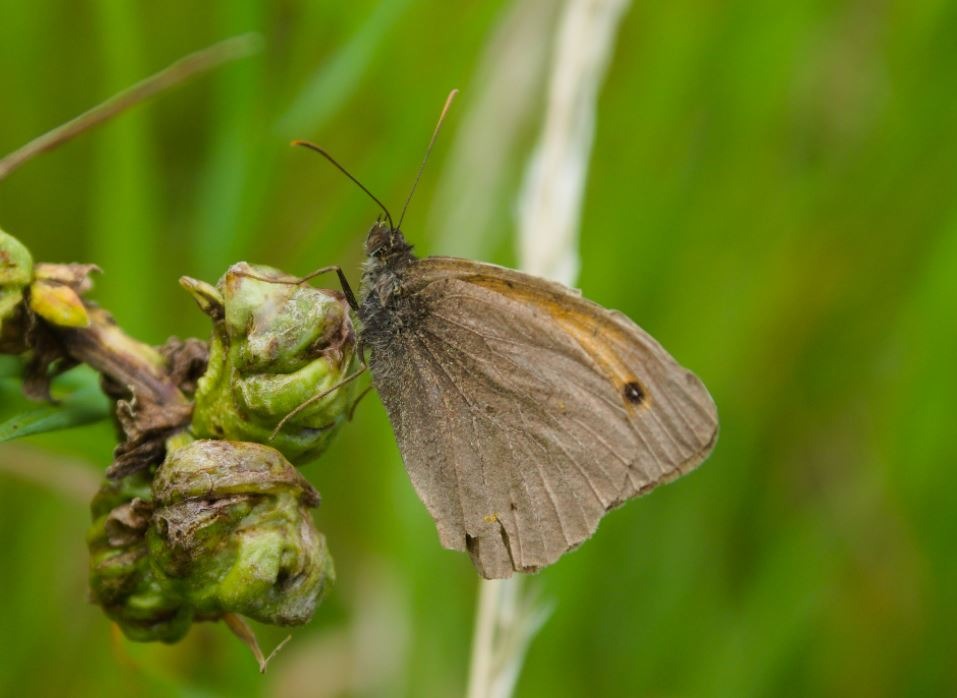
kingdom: Animalia
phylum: Arthropoda
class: Insecta
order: Lepidoptera
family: Nymphalidae
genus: Maniola
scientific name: Maniola jurtina
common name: Græsrandøje
